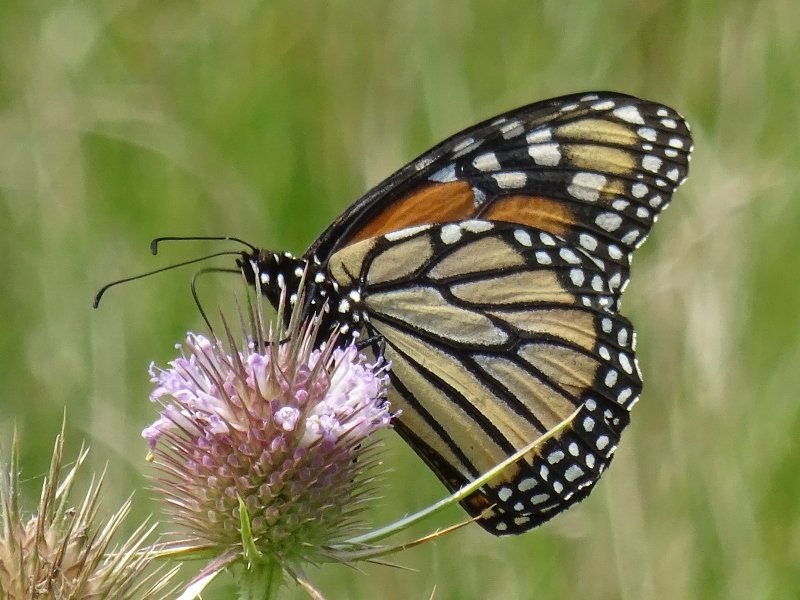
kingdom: Animalia
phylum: Arthropoda
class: Insecta
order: Lepidoptera
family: Nymphalidae
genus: Danaus
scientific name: Danaus plexippus
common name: Monarch
